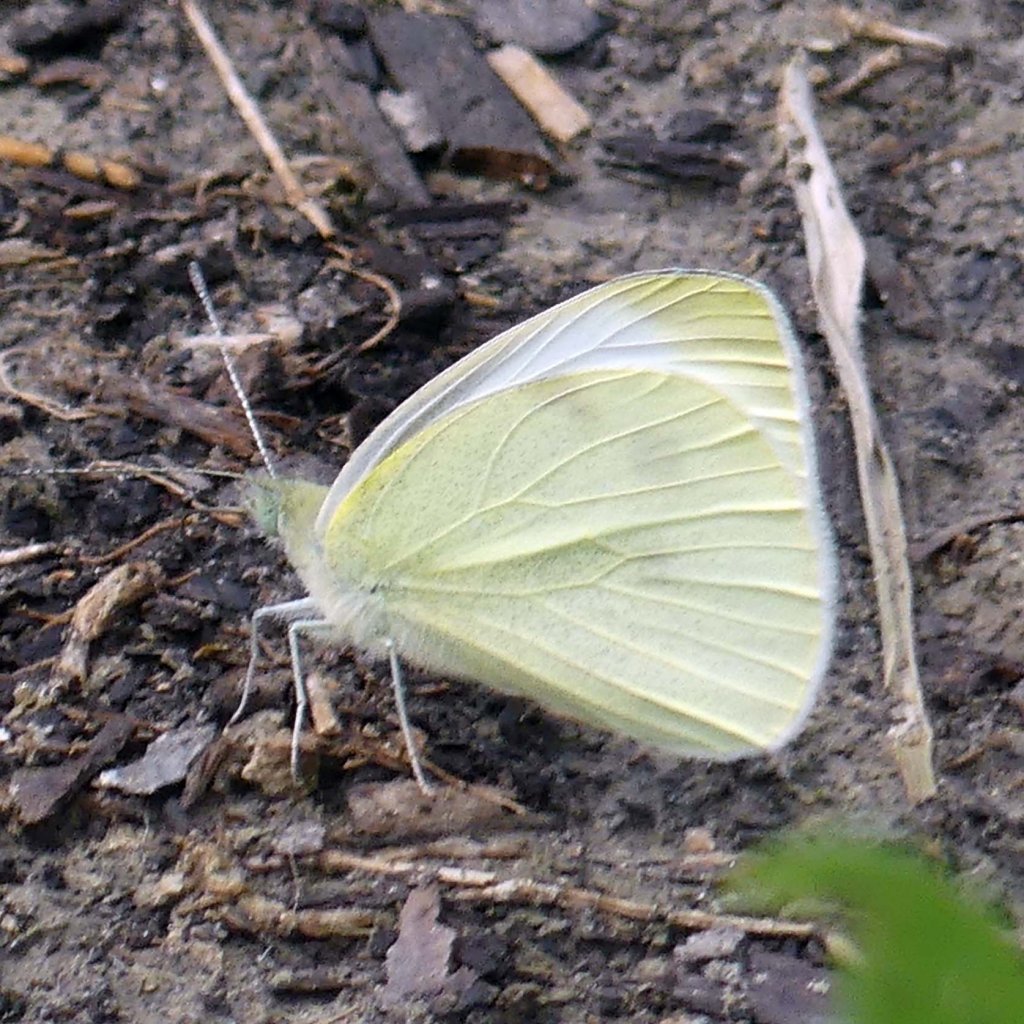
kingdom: Animalia
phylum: Arthropoda
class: Insecta
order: Lepidoptera
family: Pieridae
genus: Pieris
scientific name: Pieris rapae
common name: Cabbage White
